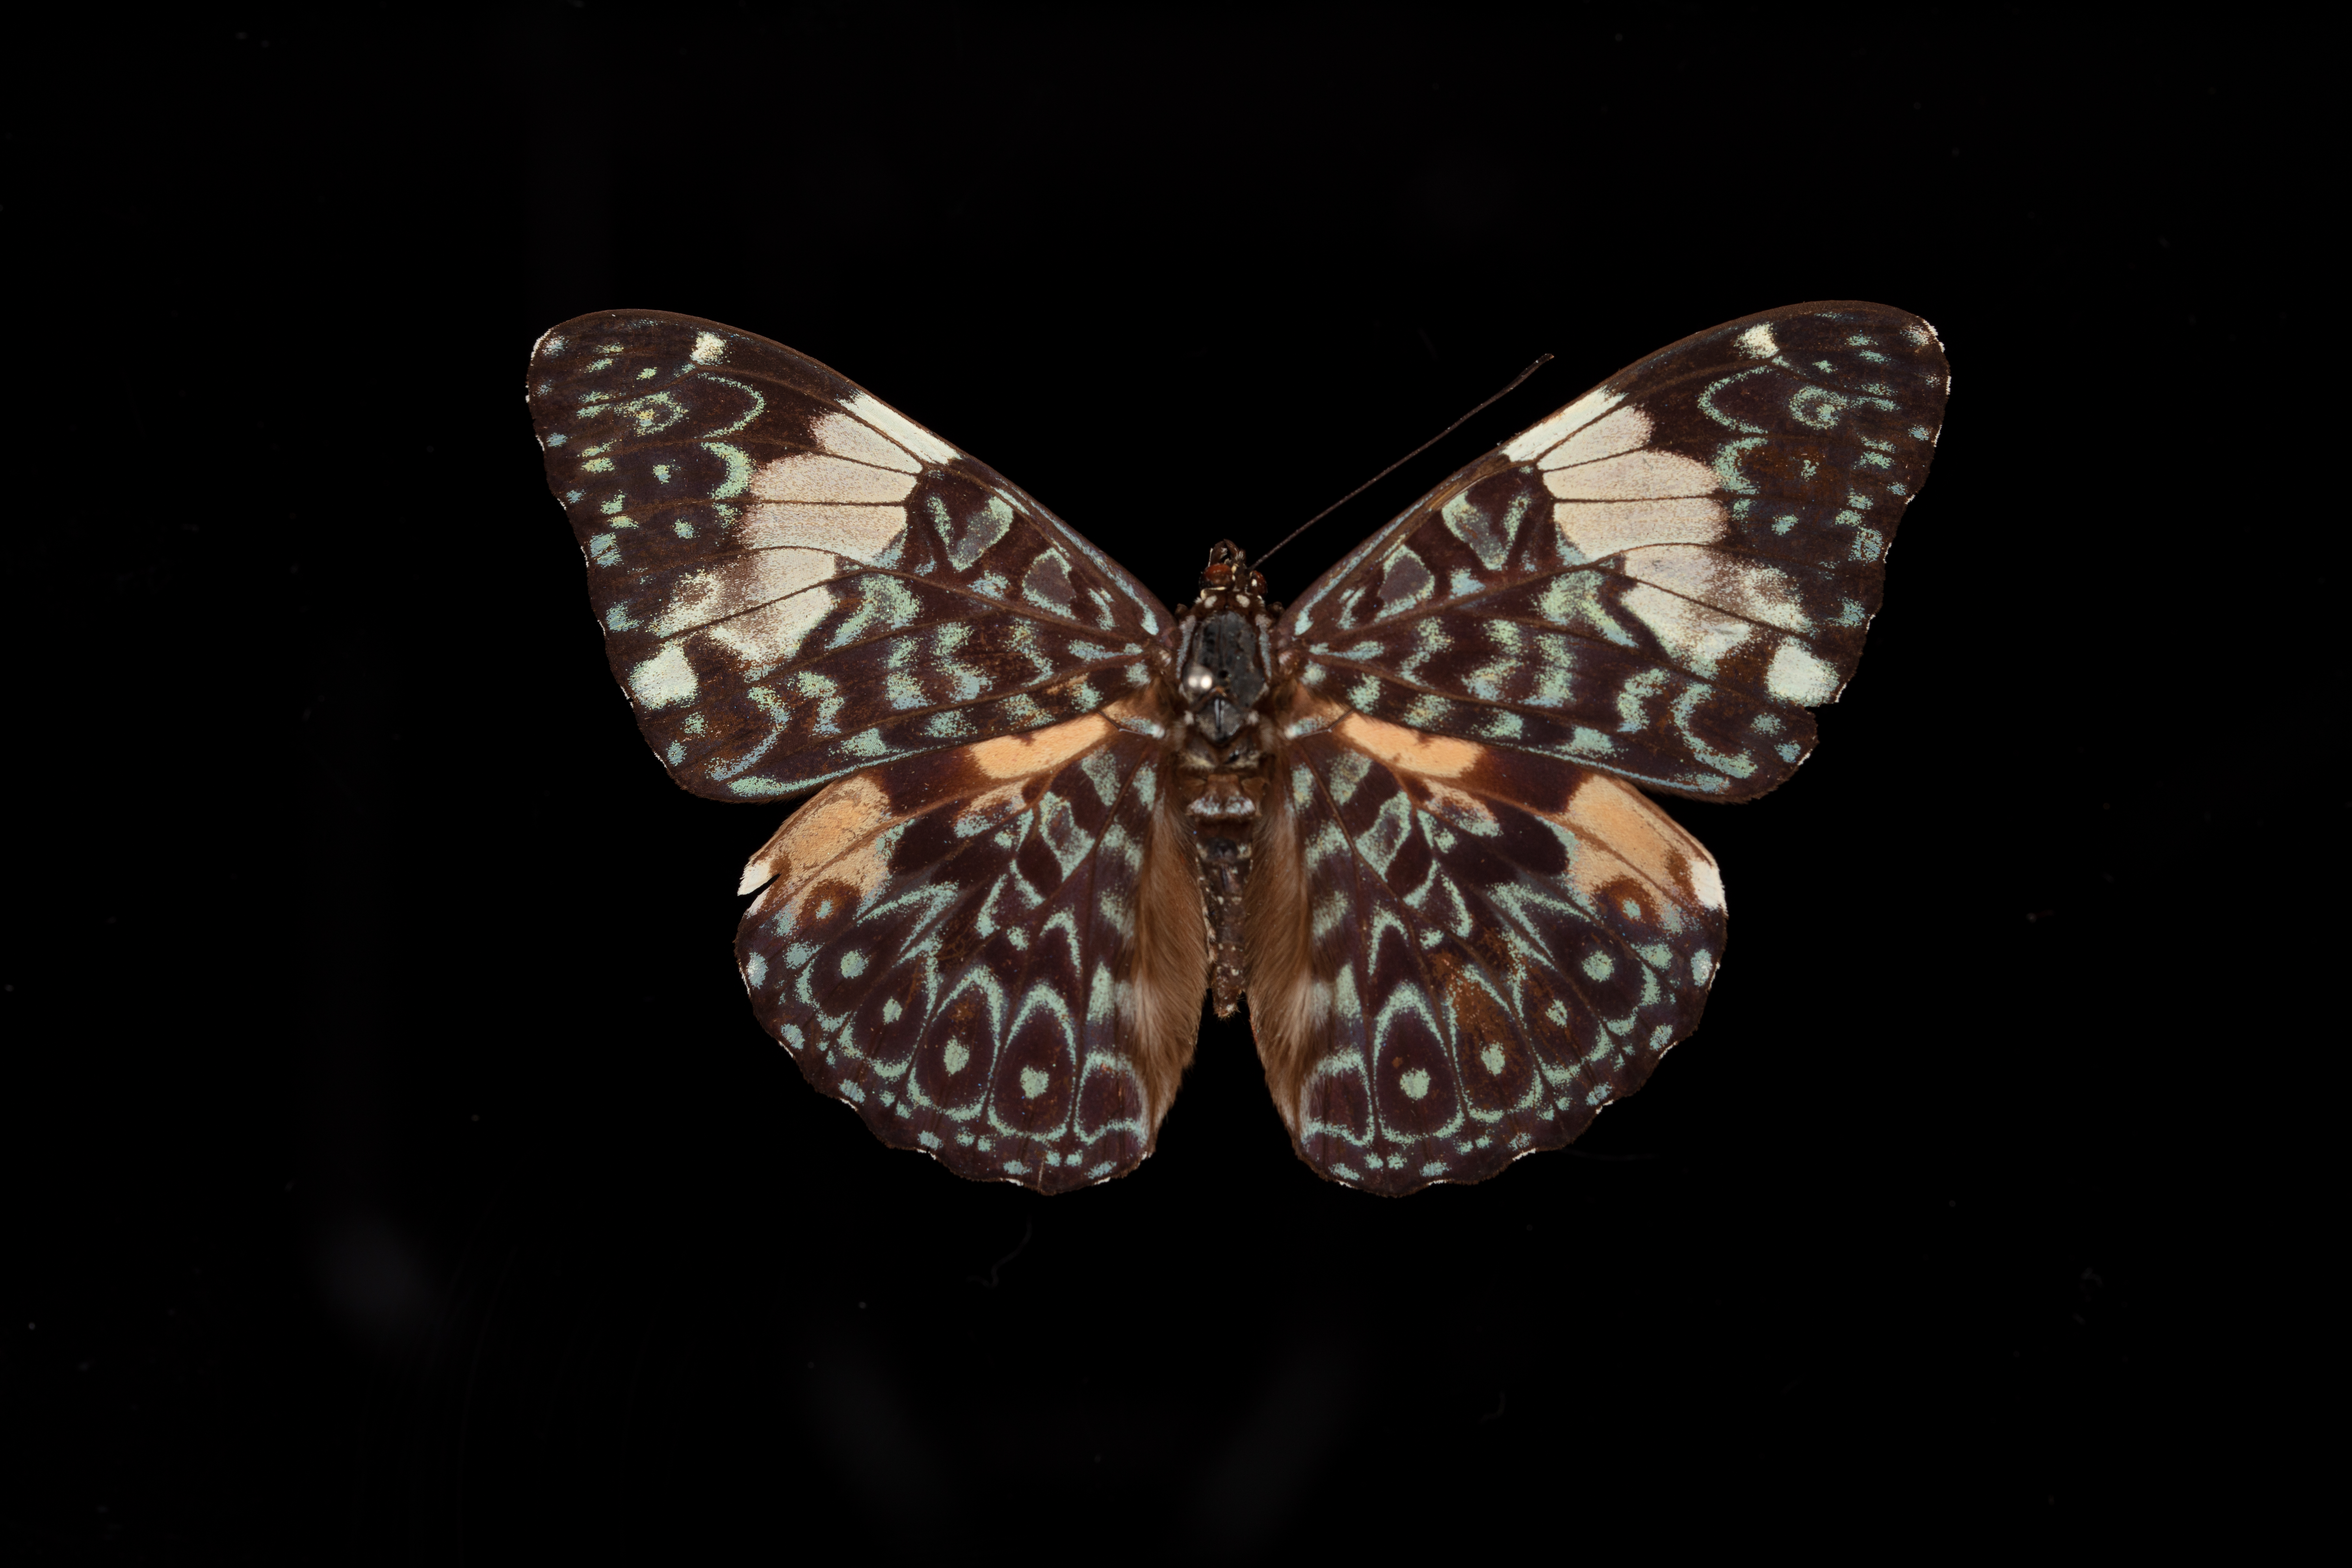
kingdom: Animalia
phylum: Arthropoda
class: Insecta
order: Lepidoptera
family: Nymphalidae
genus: Hamadryas
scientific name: Hamadryas amphinome
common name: Red cracker
